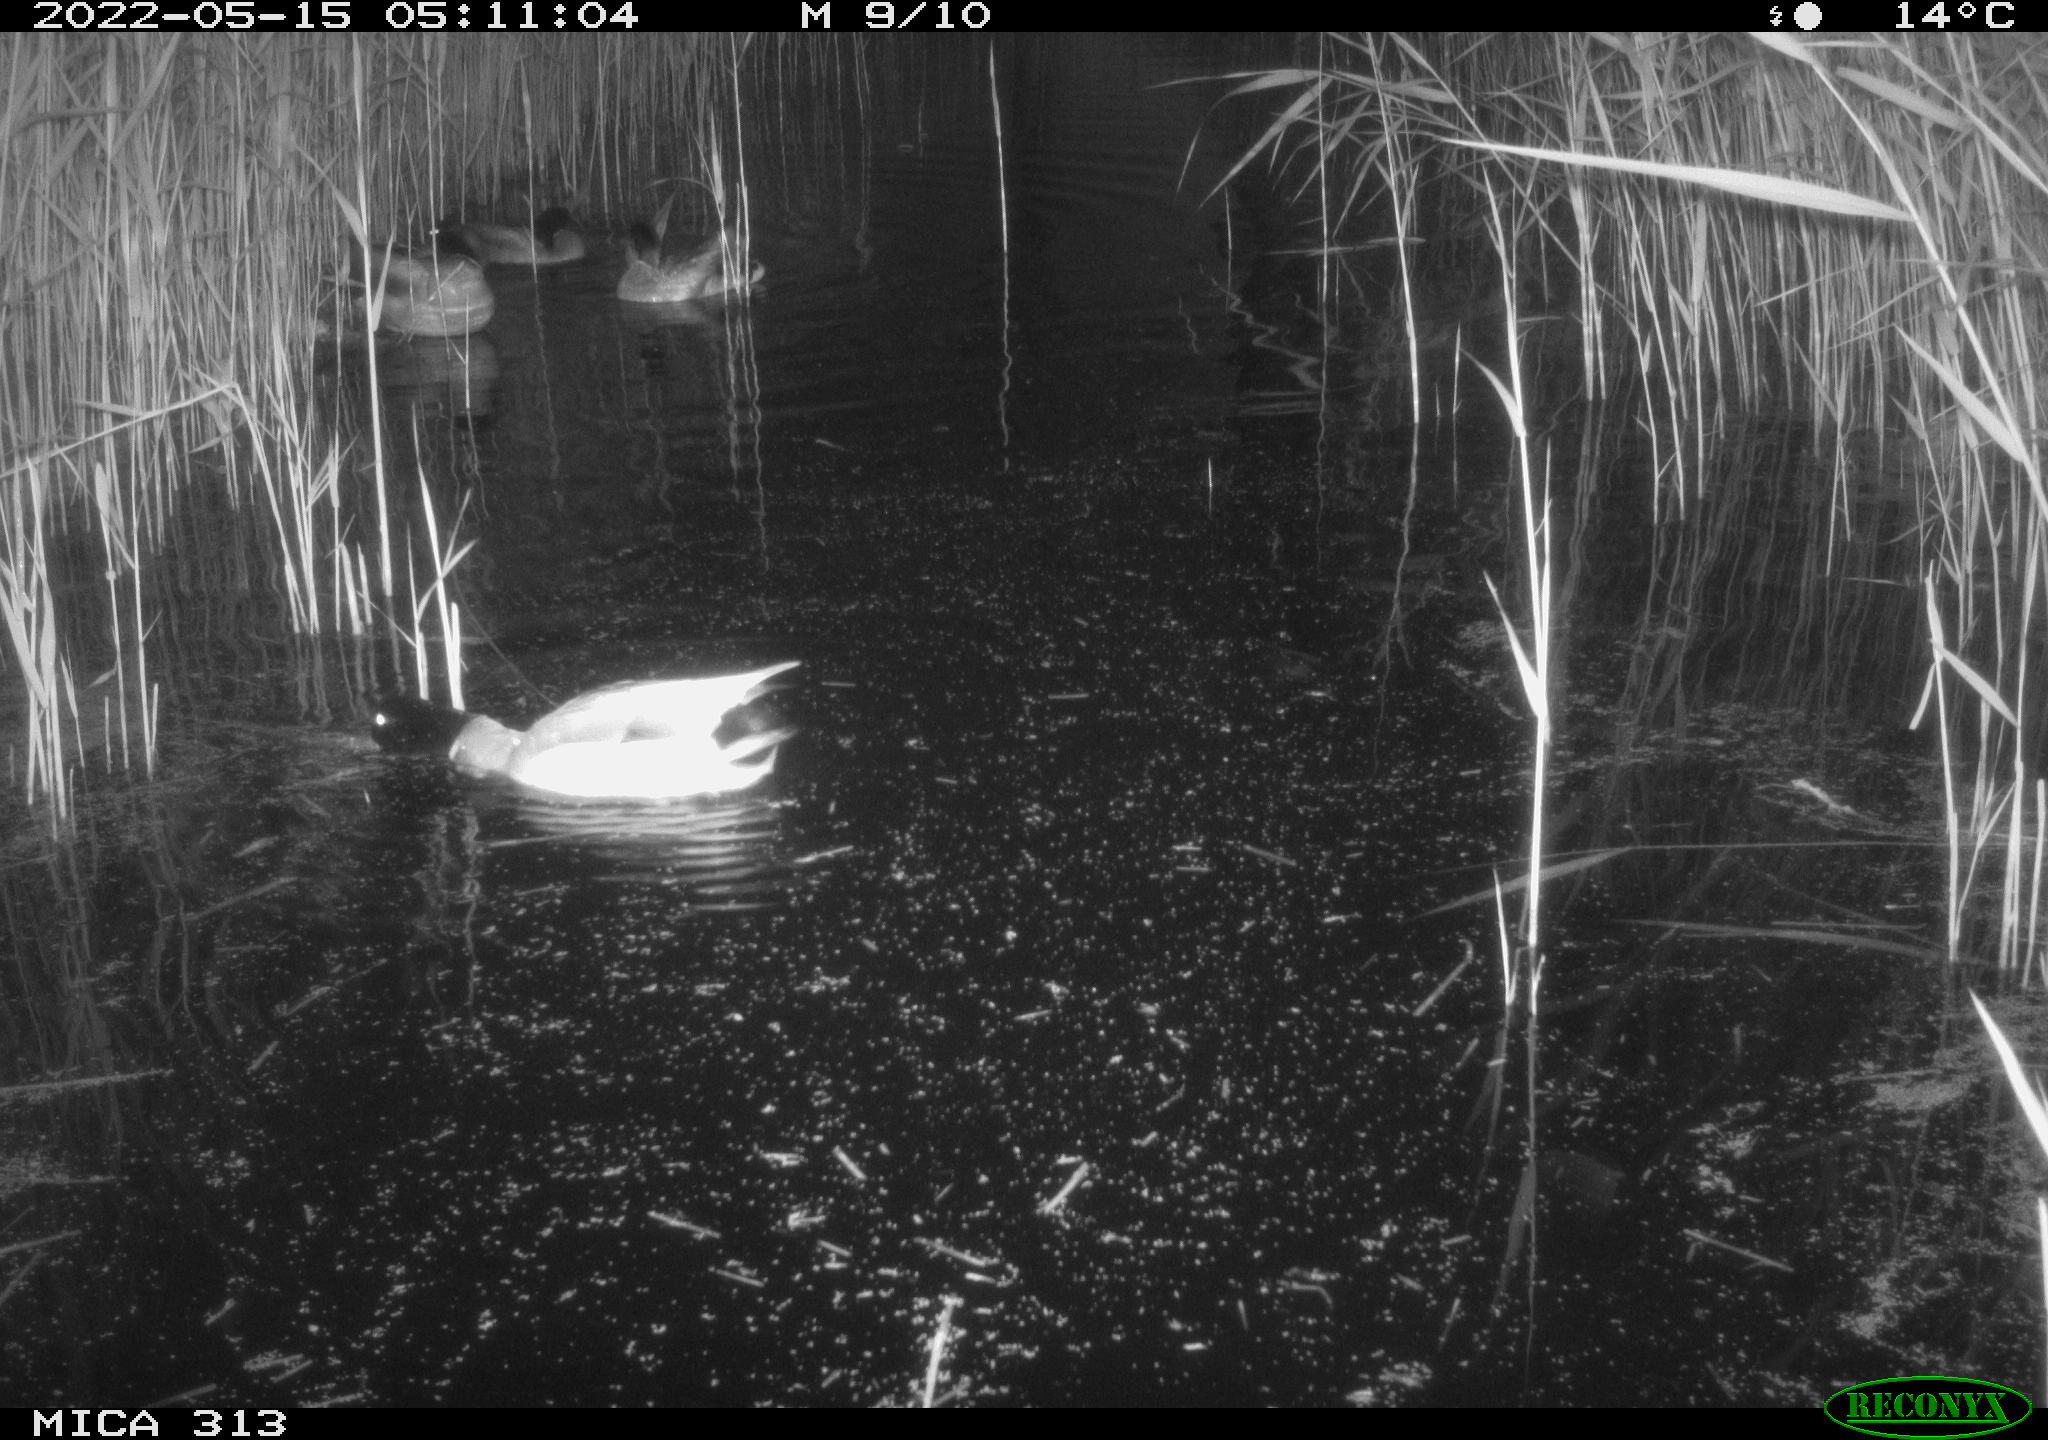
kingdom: Animalia
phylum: Chordata
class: Aves
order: Anseriformes
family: Anatidae
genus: Anas
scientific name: Anas platyrhynchos
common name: Mallard
